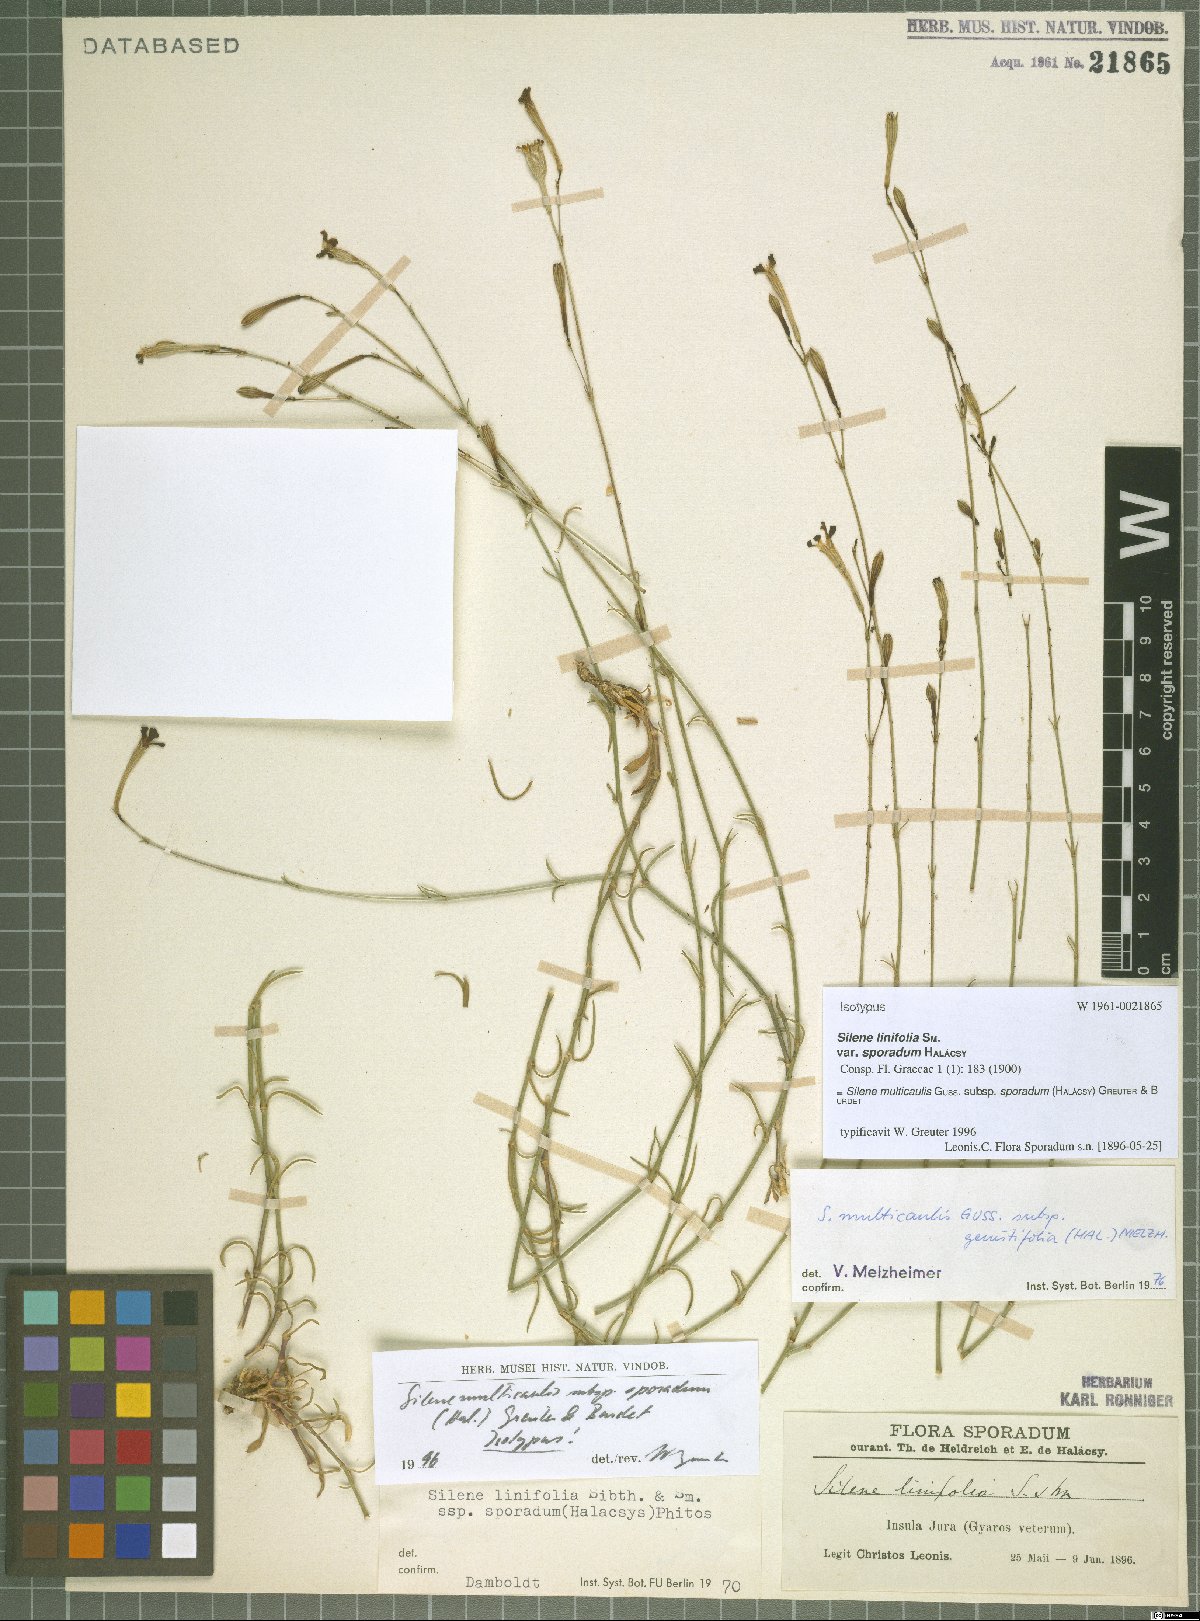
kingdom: Plantae
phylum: Tracheophyta
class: Magnoliopsida
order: Caryophyllales
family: Caryophyllaceae
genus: Silene
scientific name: Silene multicaulis
